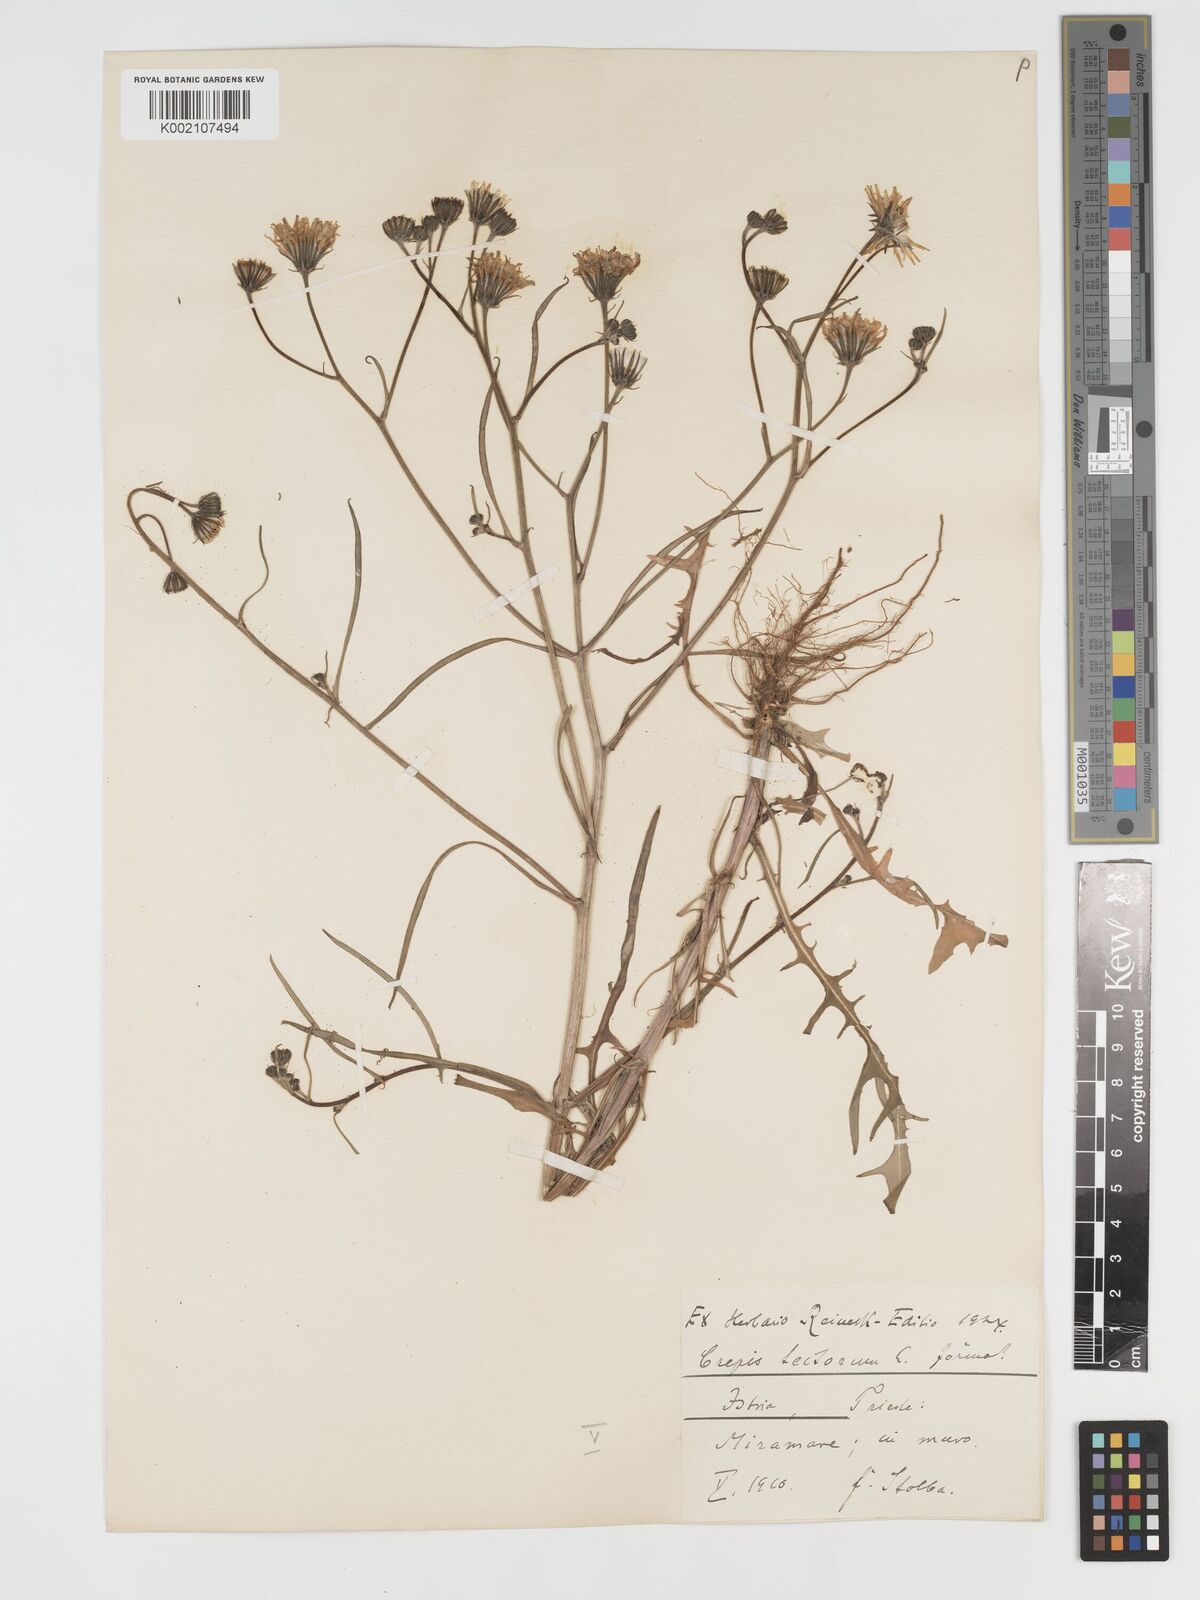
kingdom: Plantae
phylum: Tracheophyta
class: Magnoliopsida
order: Asterales
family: Asteraceae
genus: Crepis
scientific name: Crepis tectorum
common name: Narrow-leaved hawk's-beard
